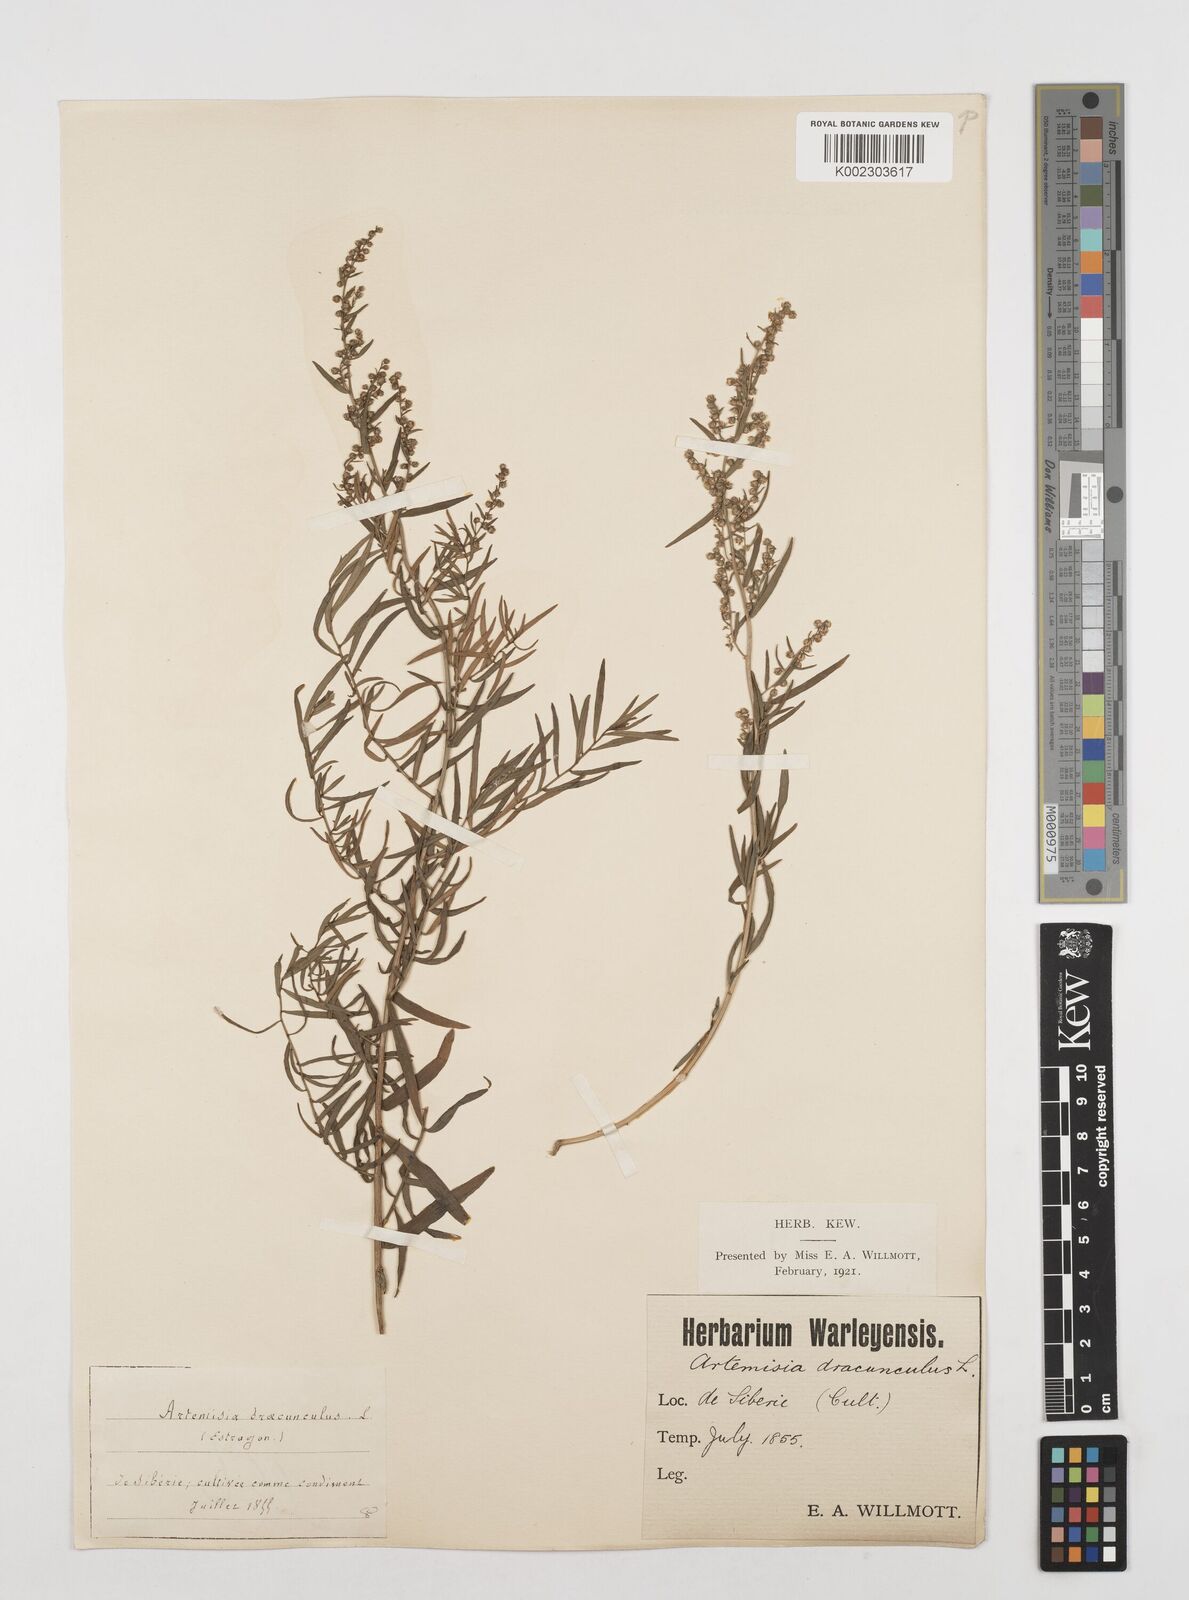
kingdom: Plantae
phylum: Tracheophyta
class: Magnoliopsida
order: Asterales
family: Asteraceae
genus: Artemisia
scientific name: Artemisia dracunculus
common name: Tarragon
